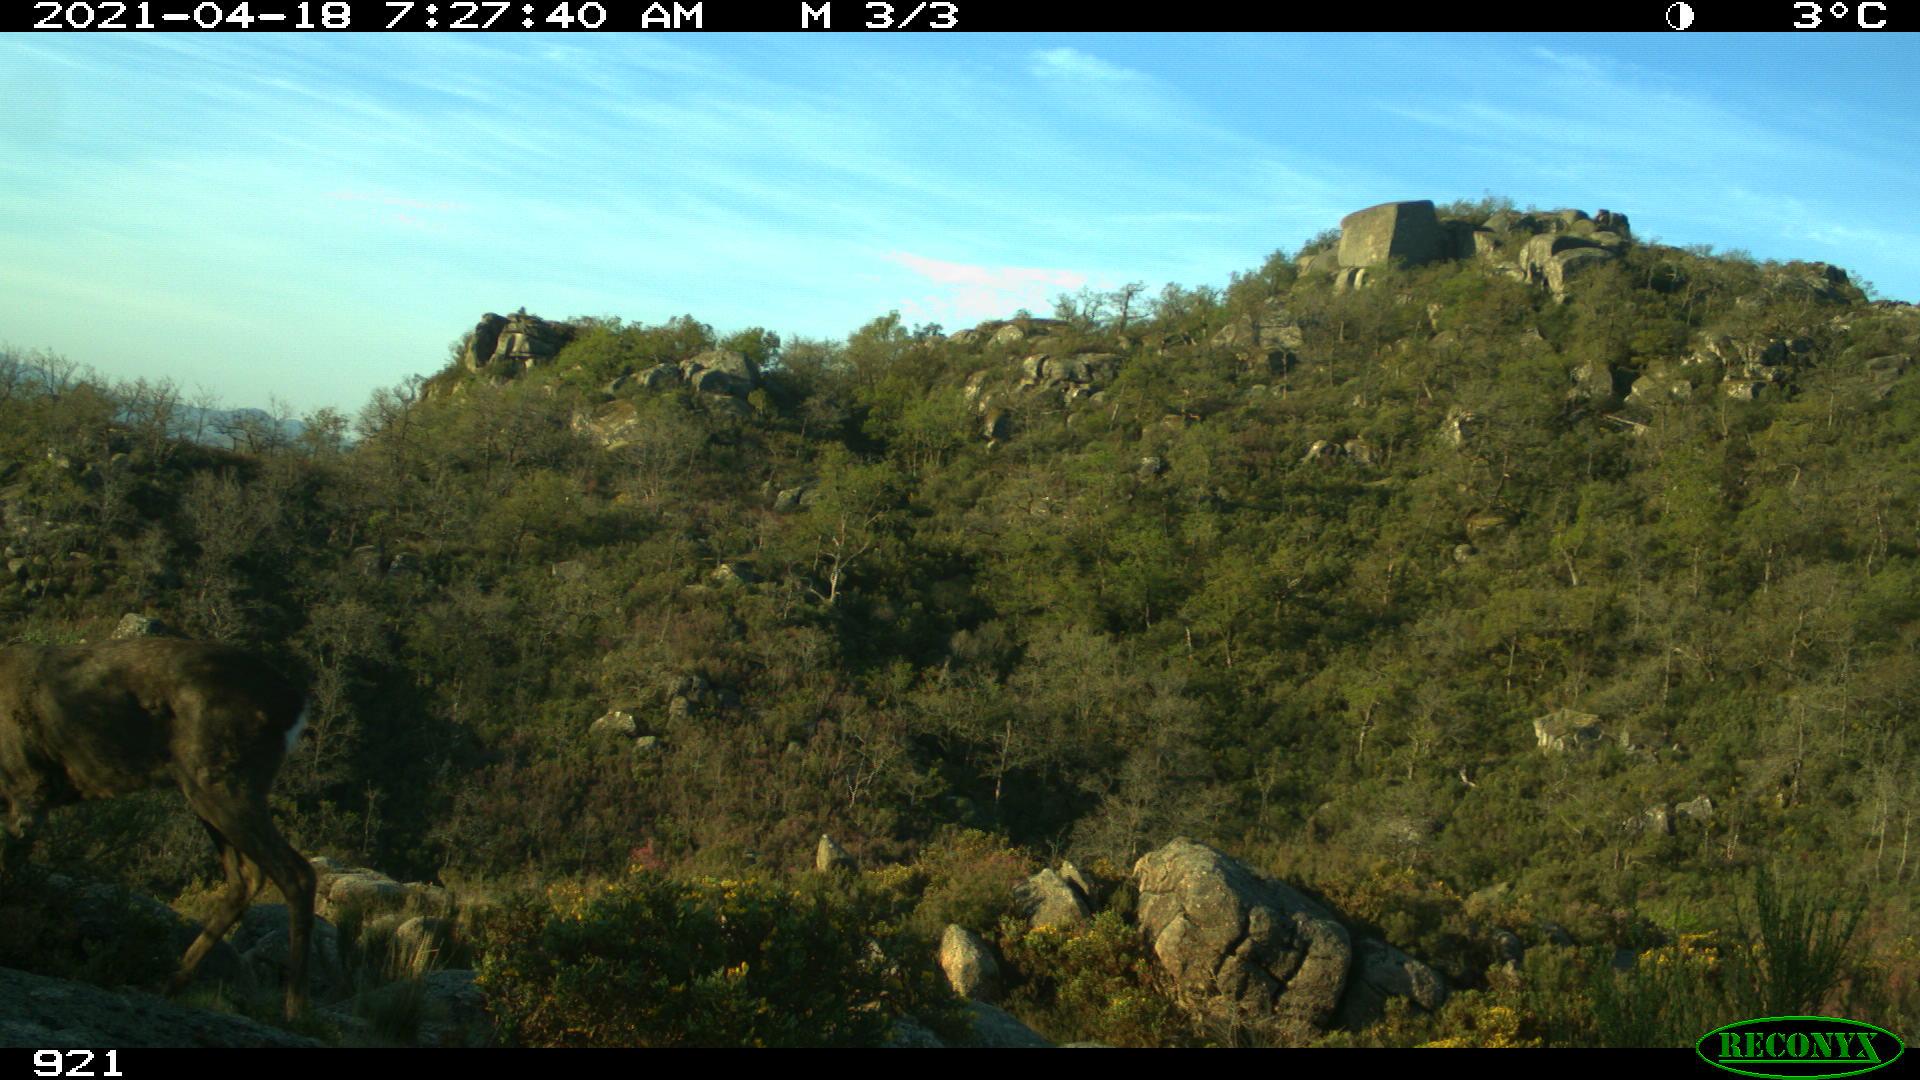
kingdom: Animalia
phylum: Chordata
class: Mammalia
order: Artiodactyla
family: Cervidae
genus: Capreolus
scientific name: Capreolus capreolus
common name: Western roe deer
